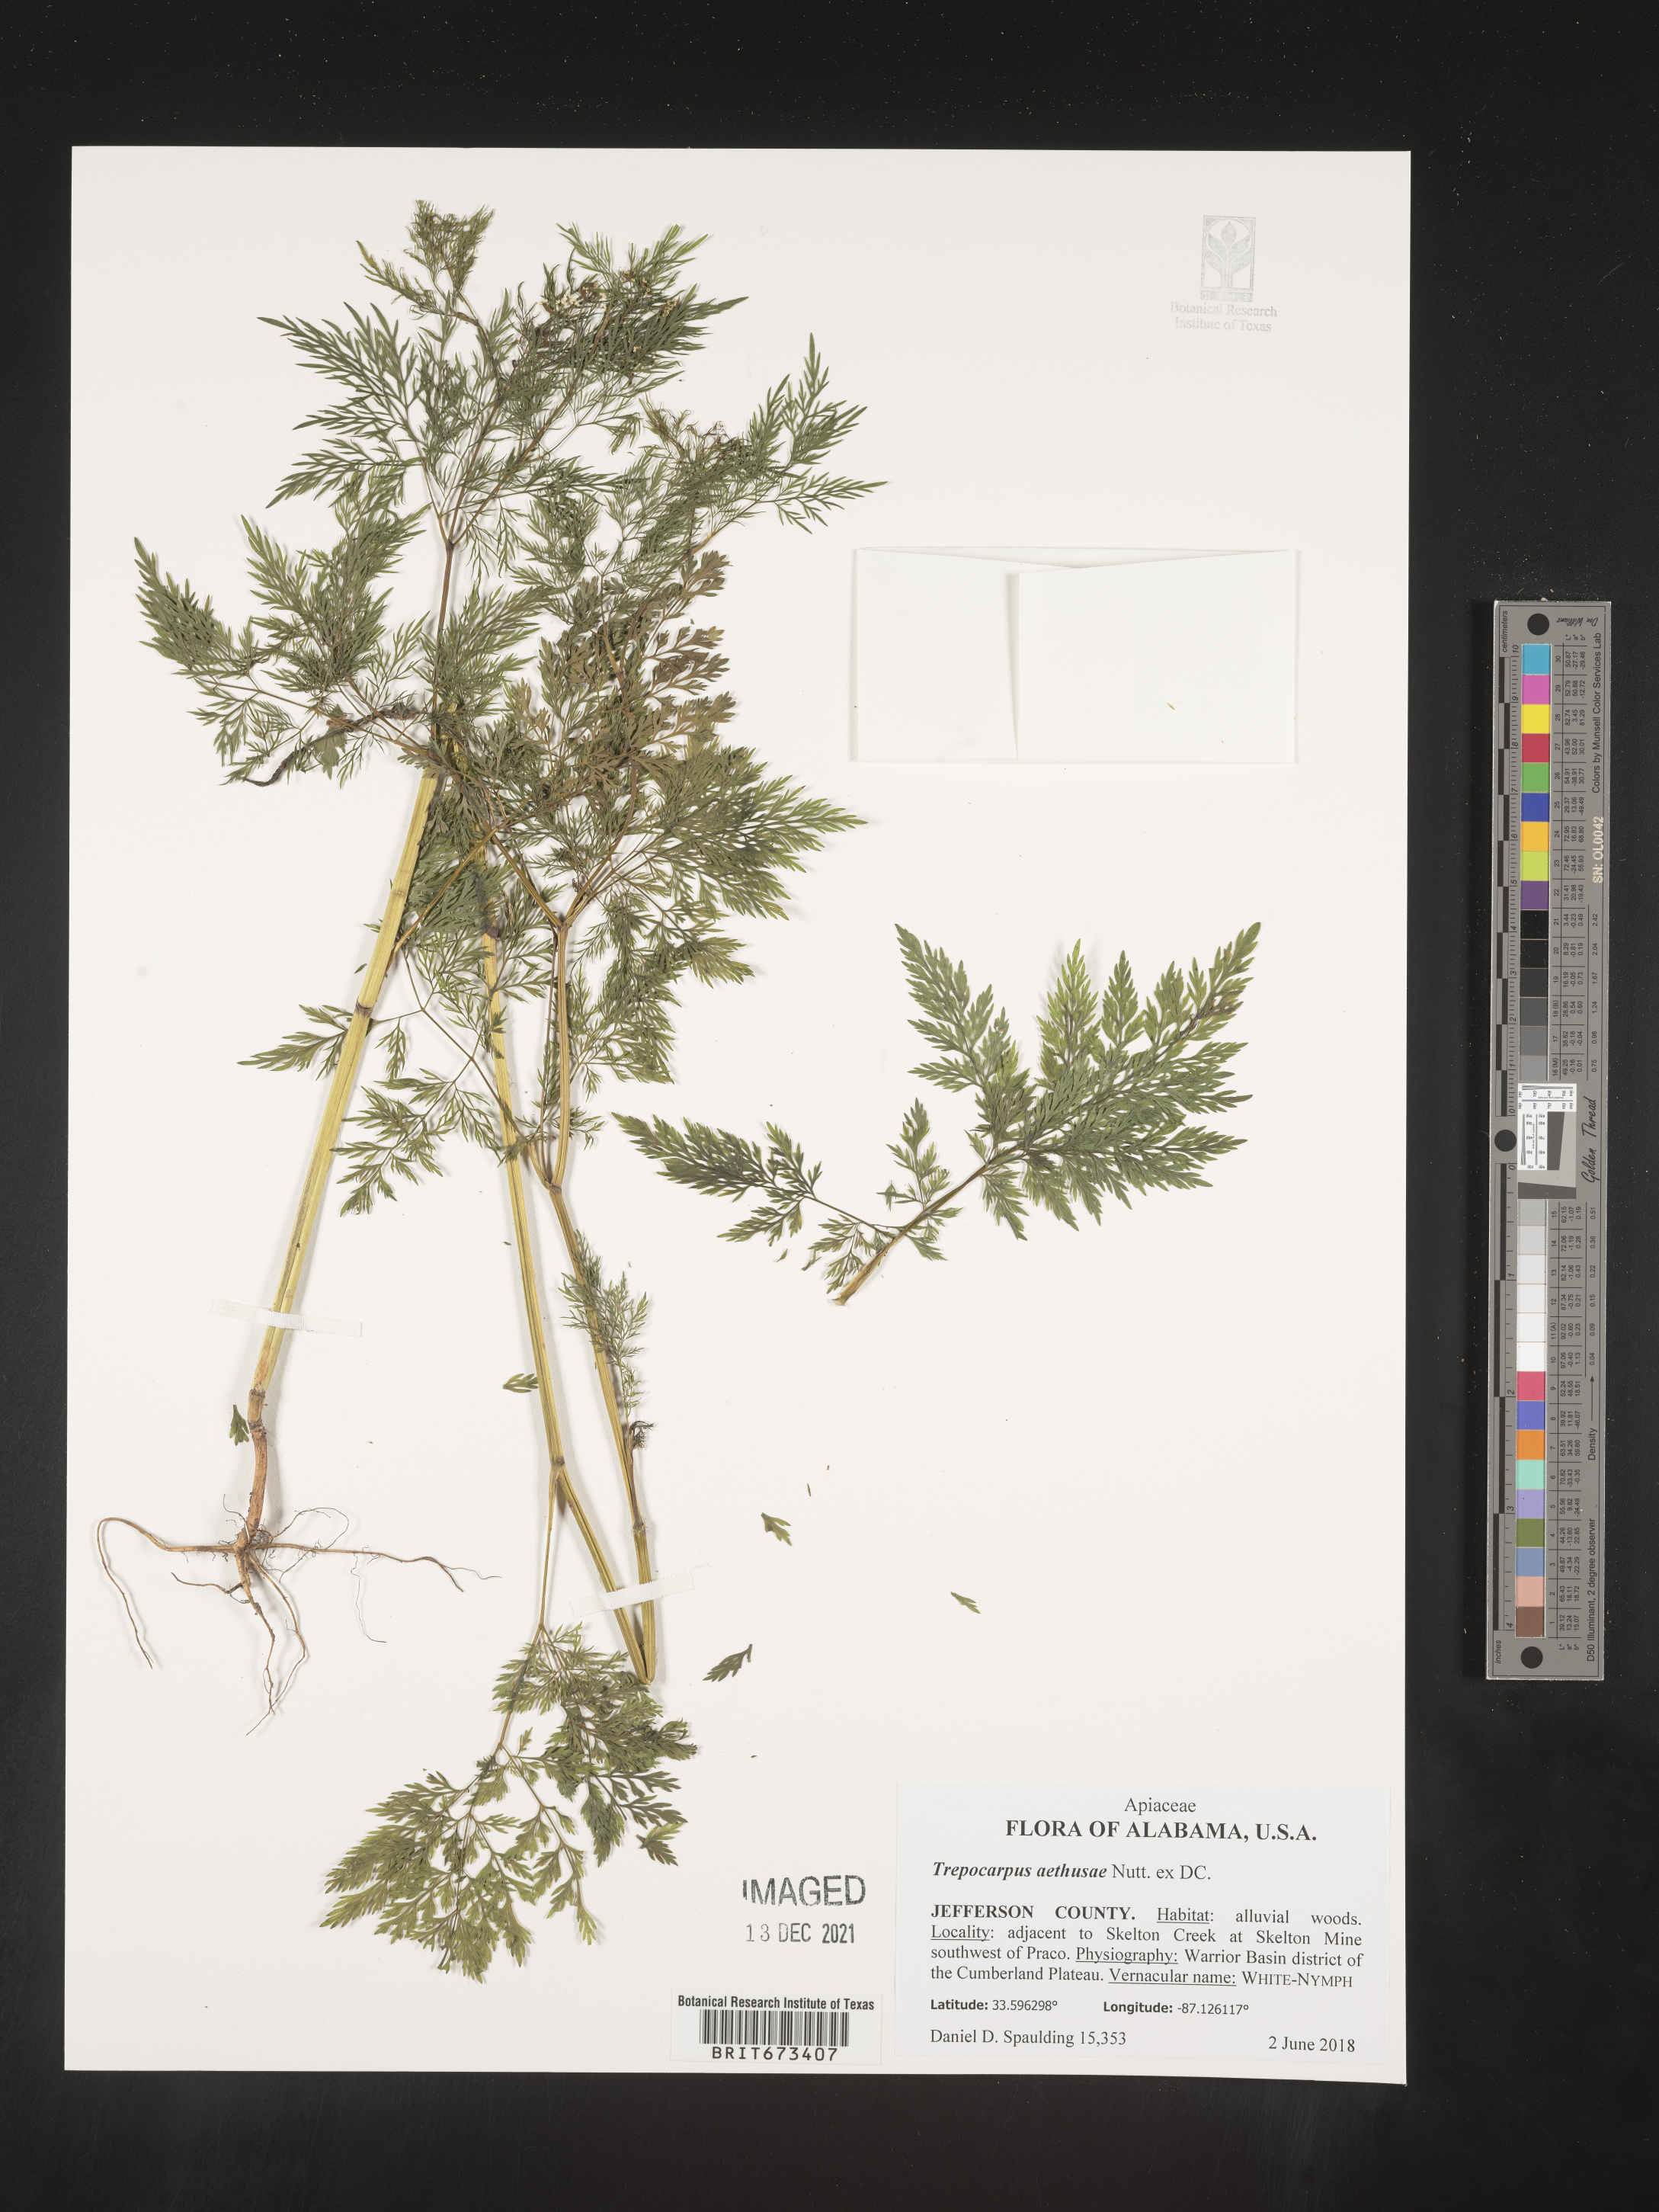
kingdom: Plantae
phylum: Tracheophyta
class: Magnoliopsida
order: Apiales
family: Apiaceae
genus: Trepocarpus
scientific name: Trepocarpus aethusae
